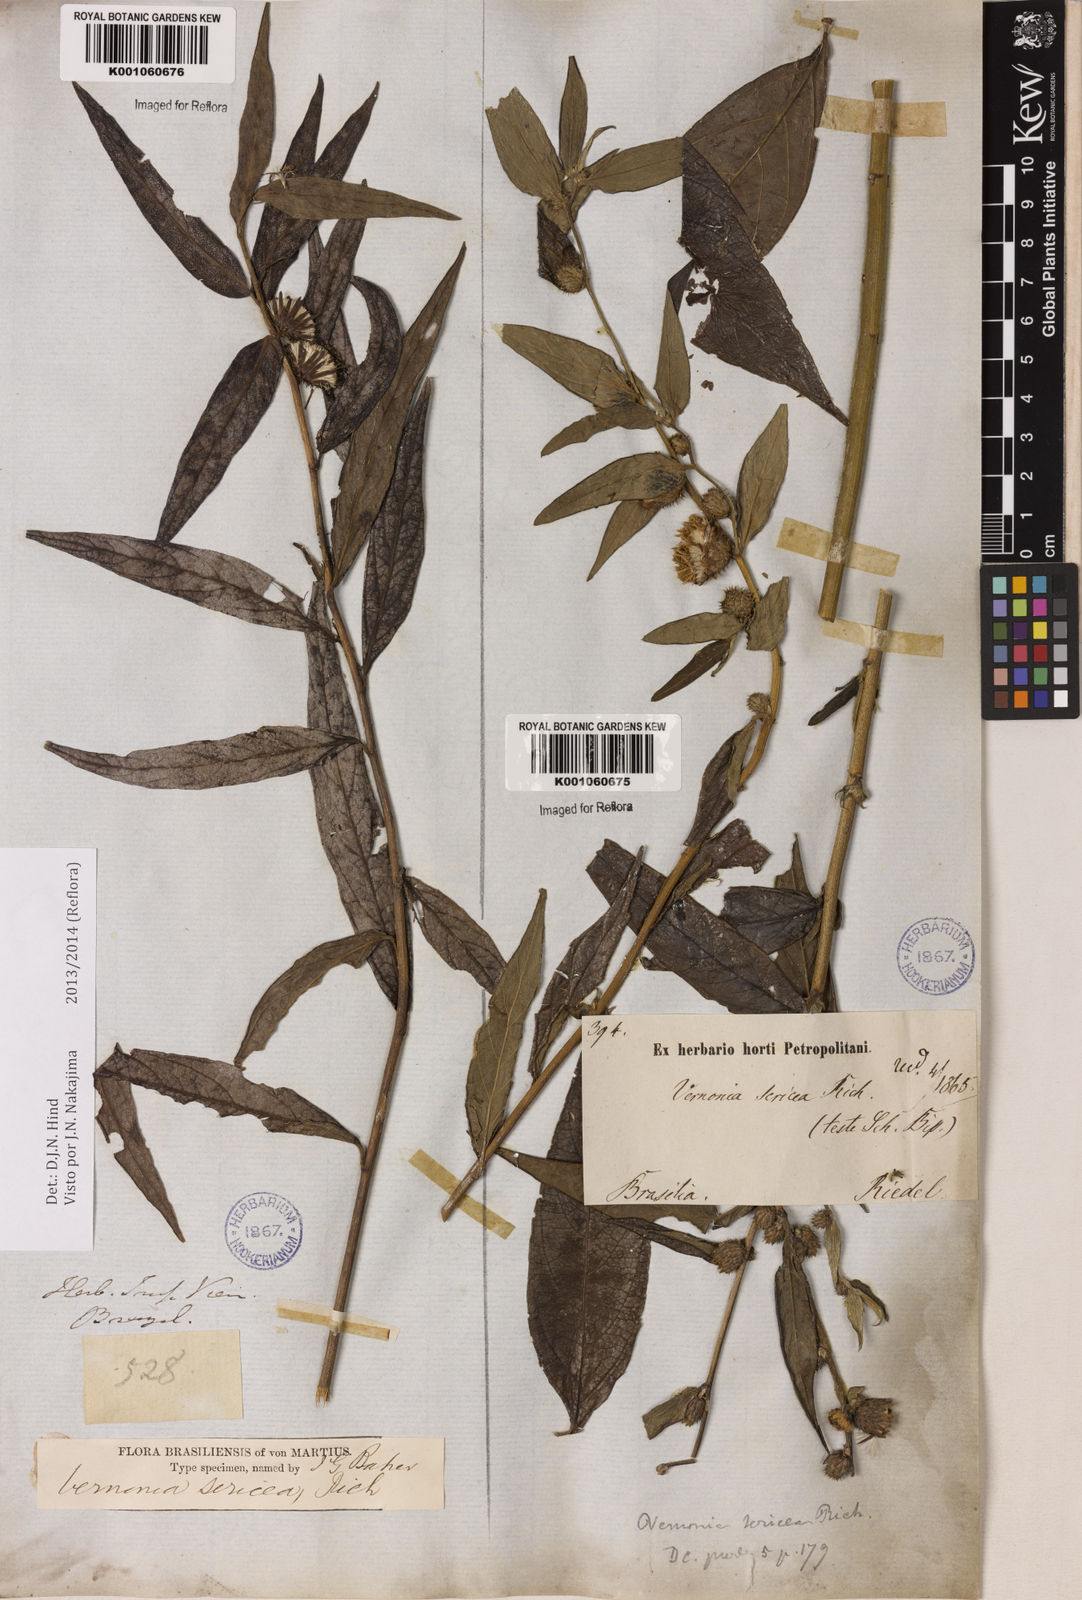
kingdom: Plantae
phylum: Tracheophyta
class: Magnoliopsida
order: Asterales
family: Asteraceae
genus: Lepidaploa
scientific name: Lepidaploa sericea
